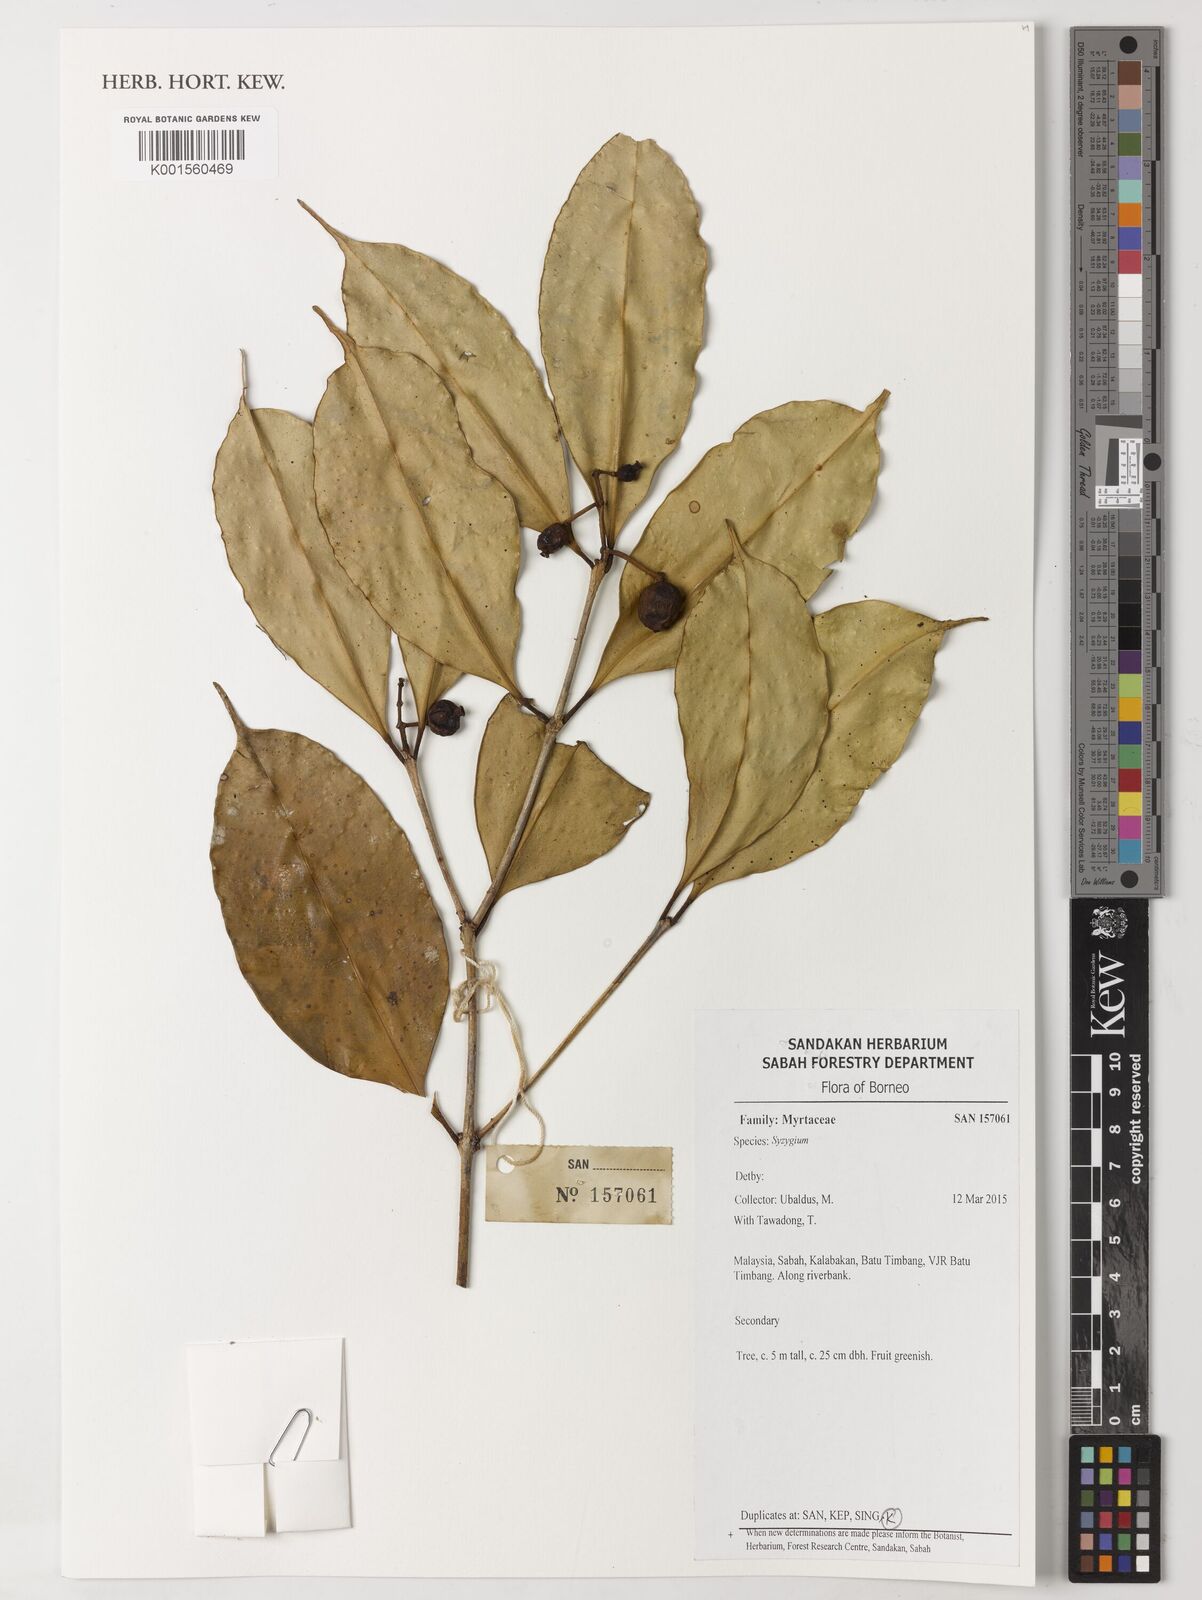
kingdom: Plantae
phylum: Tracheophyta
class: Magnoliopsida
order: Myrtales
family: Myrtaceae
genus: Syzygium
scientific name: Syzygium
